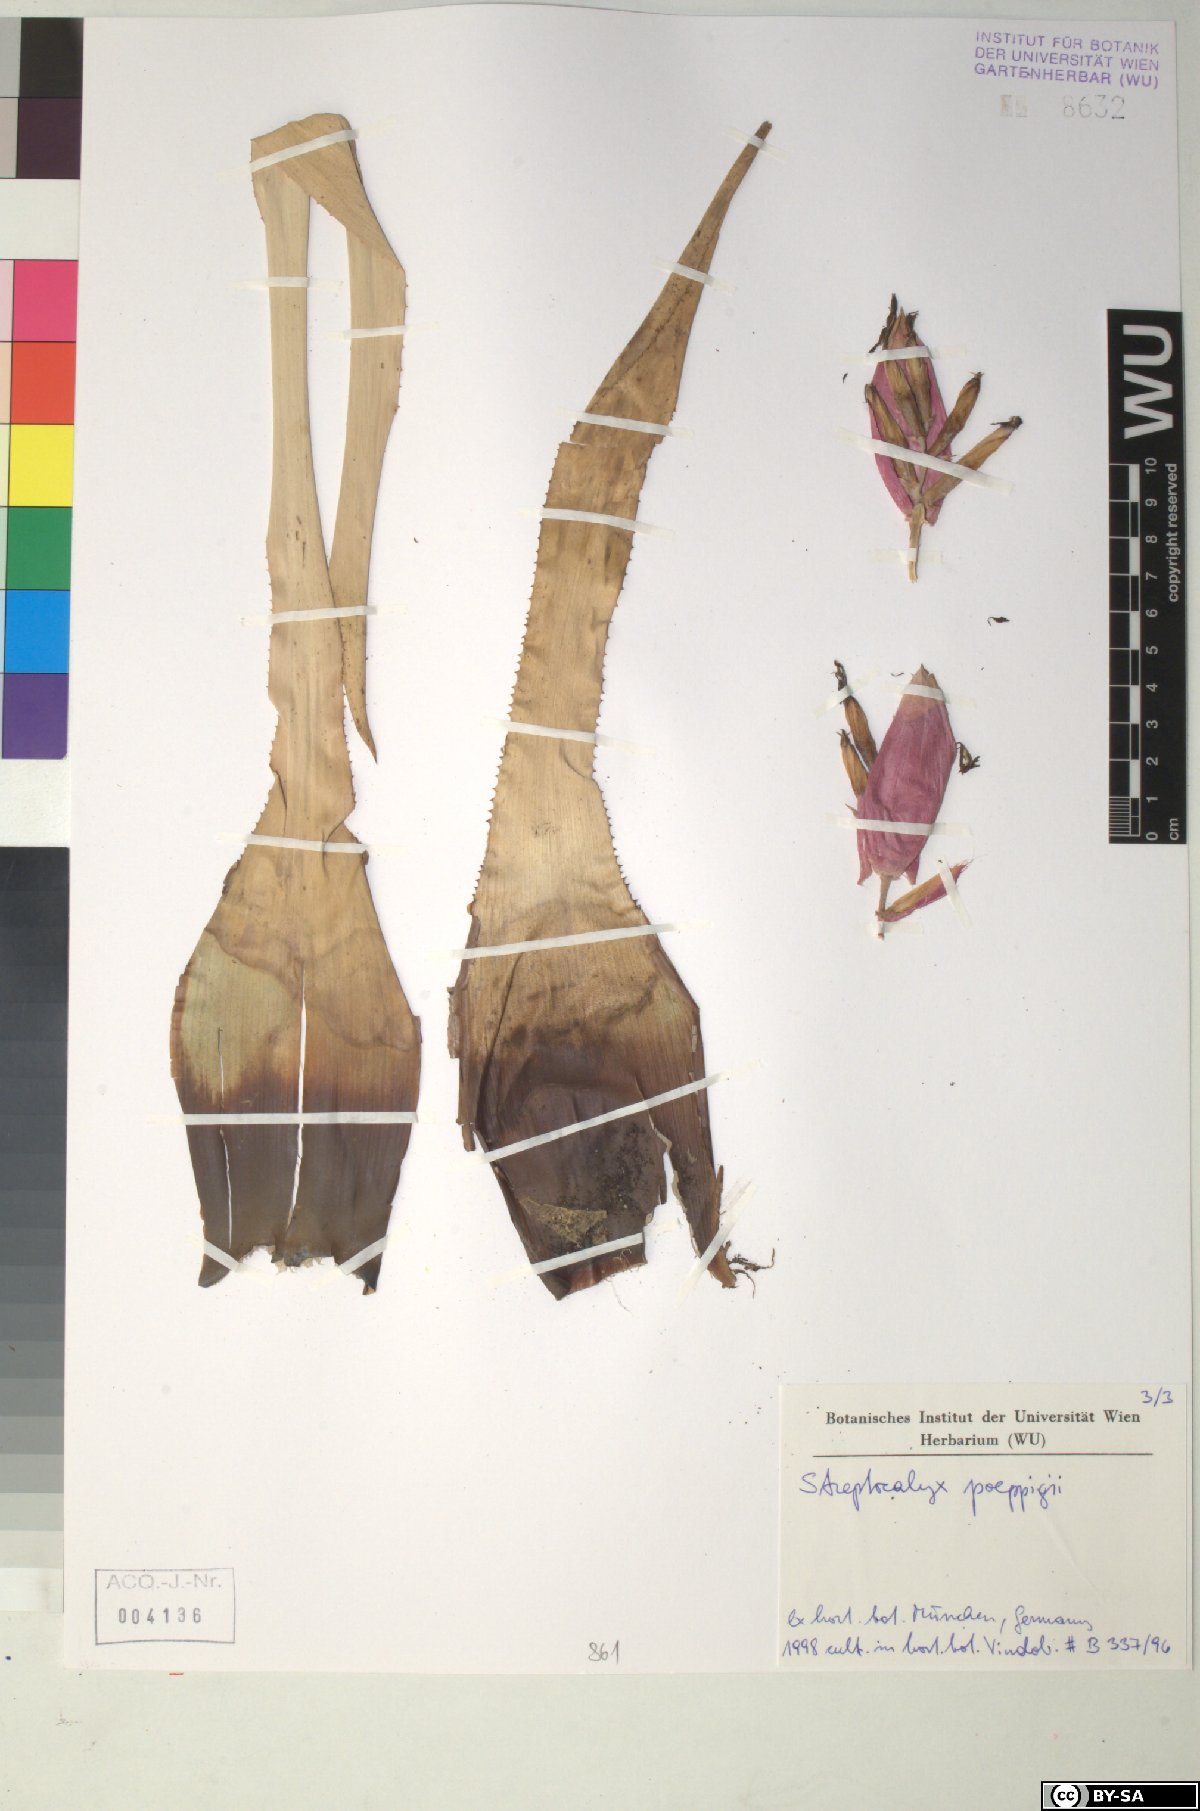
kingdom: Plantae
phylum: Tracheophyta
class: Liliopsida
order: Poales
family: Bromeliaceae
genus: Aechmea
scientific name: Aechmea vallerandii
